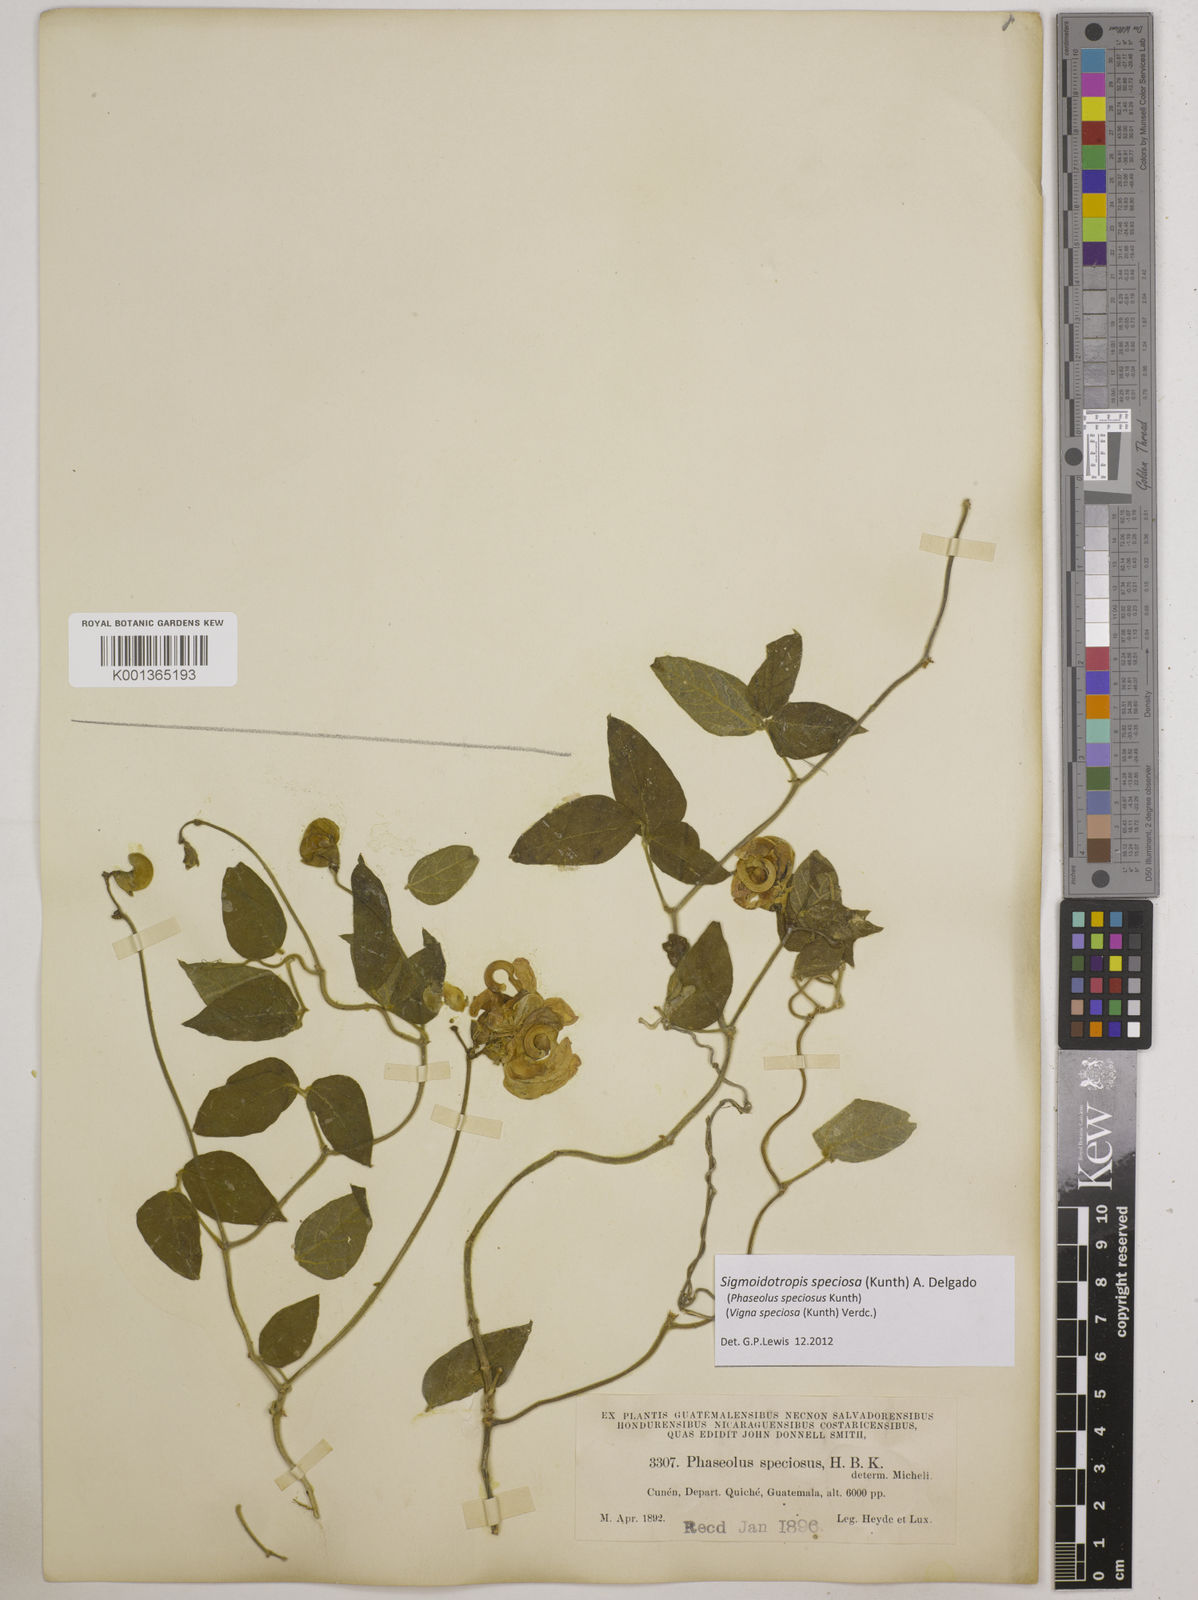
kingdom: Plantae
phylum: Tracheophyta
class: Magnoliopsida
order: Fabales
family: Fabaceae
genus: Sigmoidotropis
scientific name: Sigmoidotropis speciosa
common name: Snail flower
